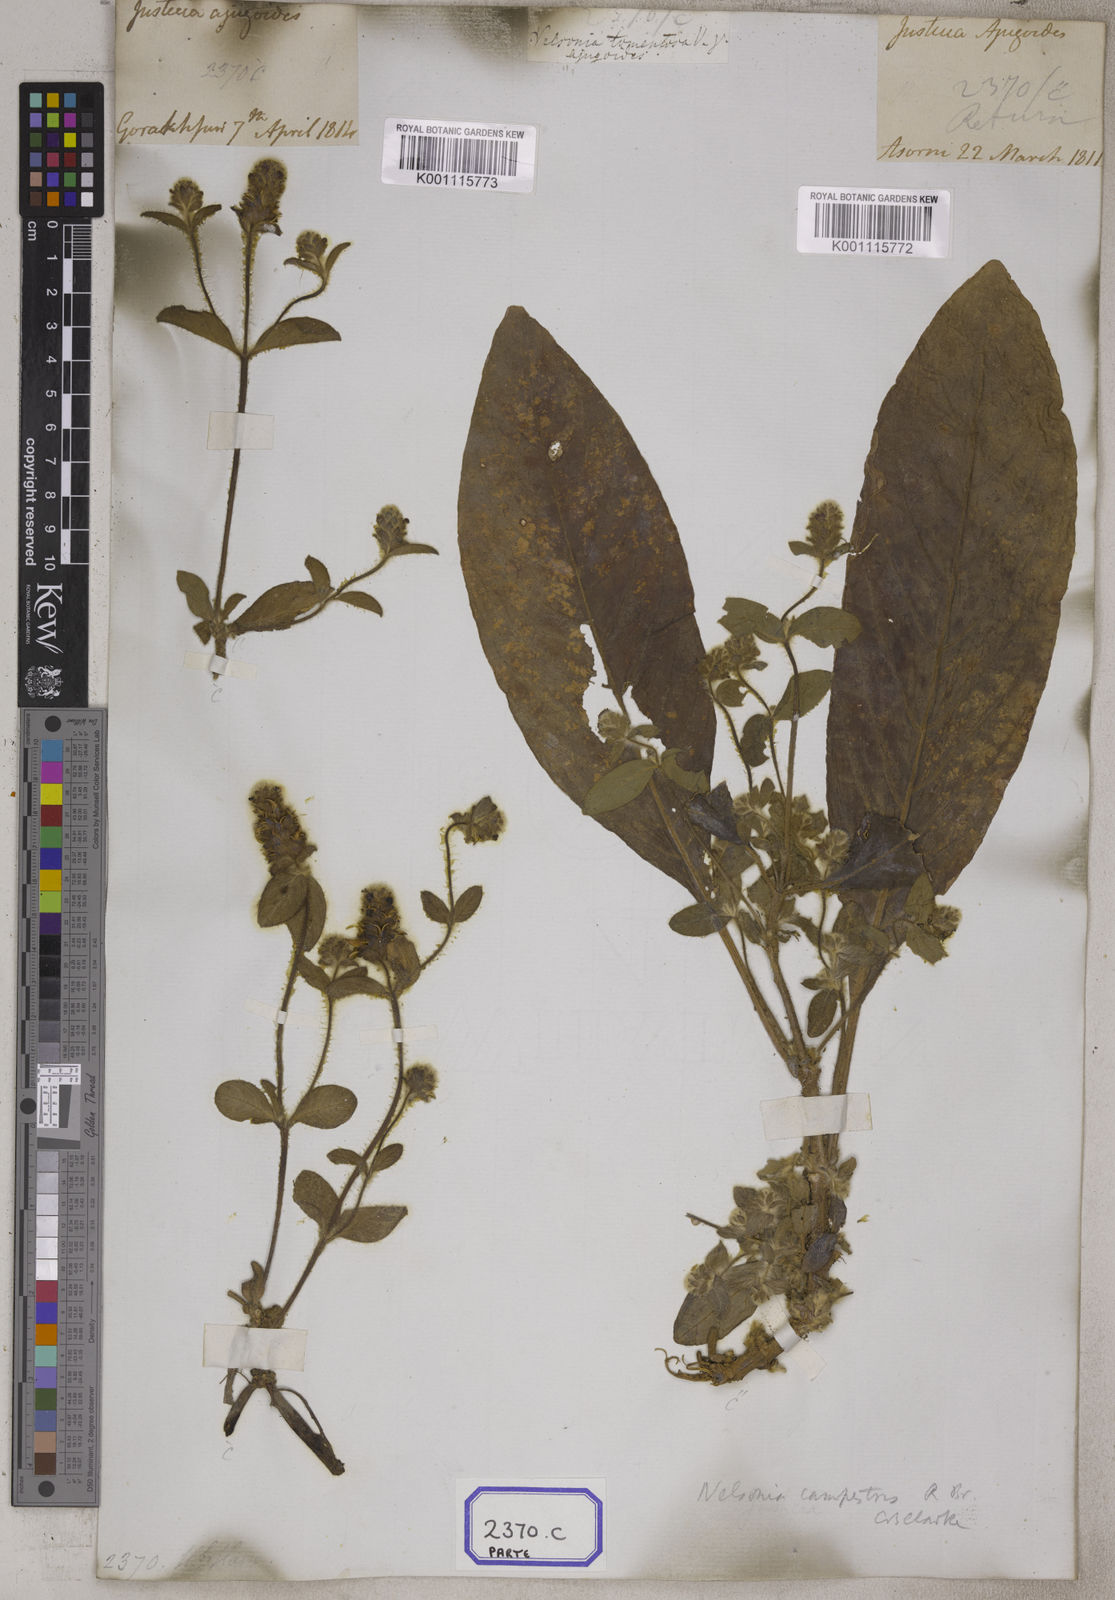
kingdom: Plantae
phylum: Tracheophyta
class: Magnoliopsida
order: Lamiales
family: Acanthaceae
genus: Nelsonia
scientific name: Nelsonia canescens
